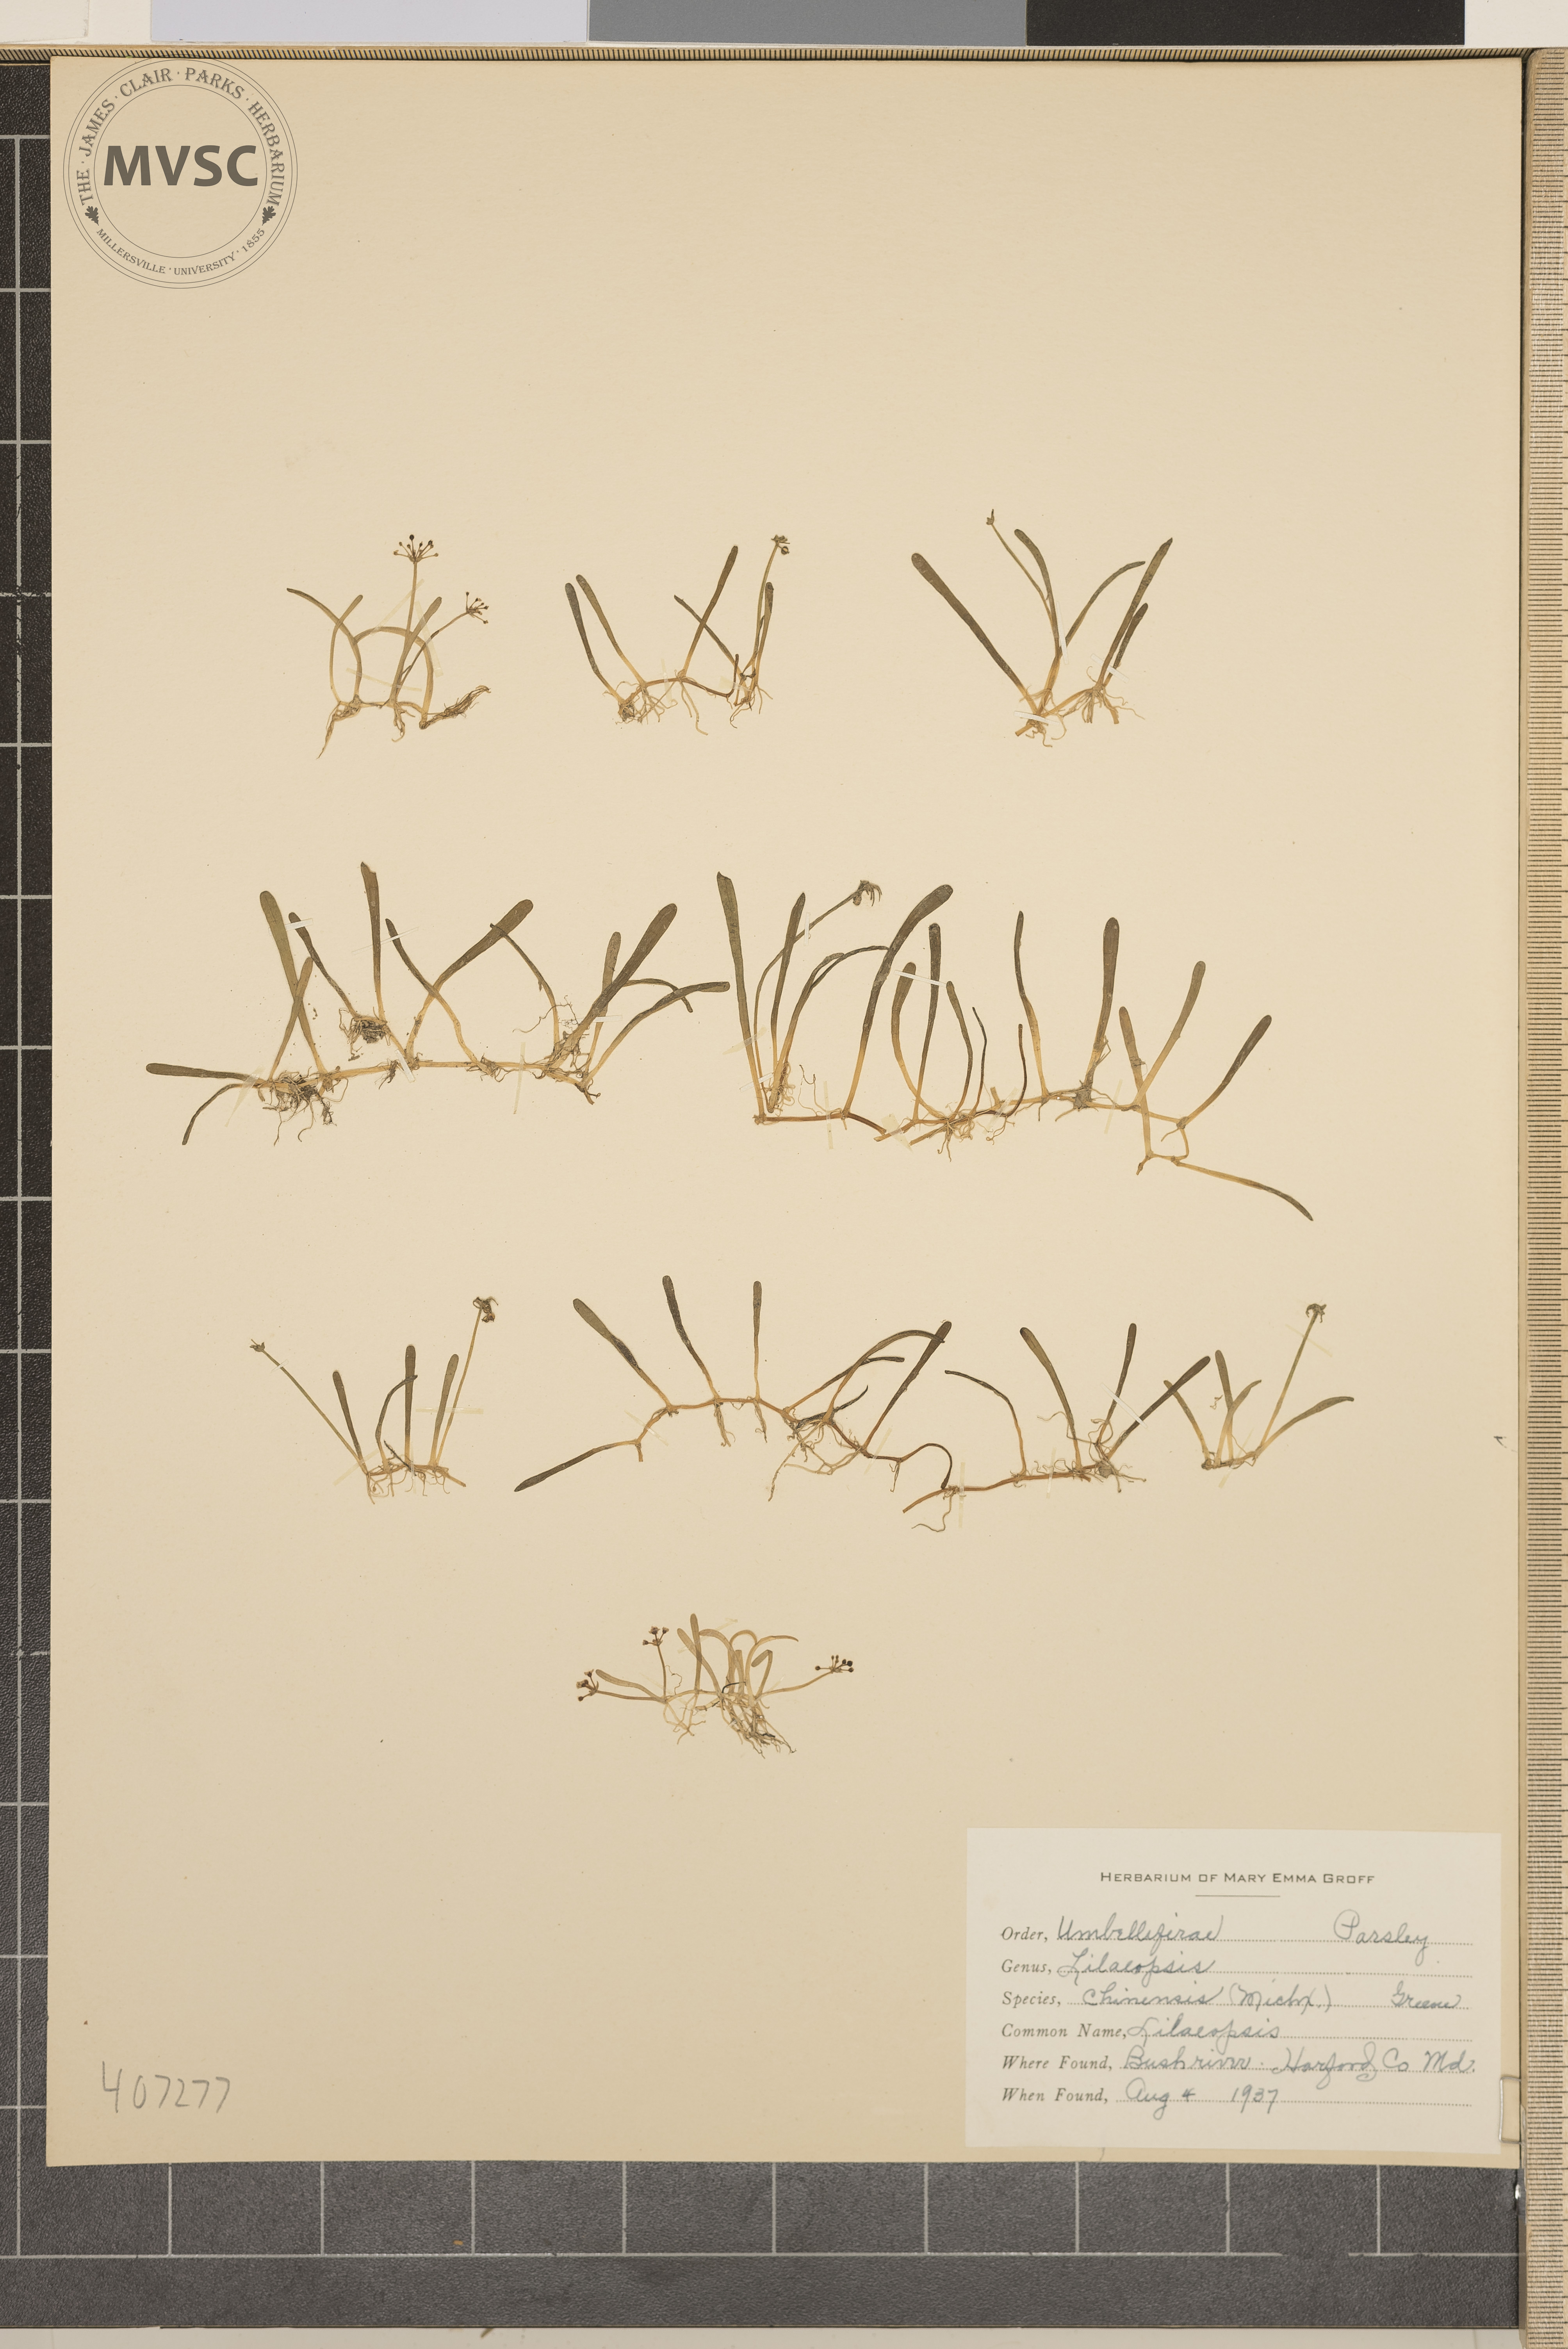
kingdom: Plantae
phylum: Tracheophyta
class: Magnoliopsida
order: Apiales
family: Apiaceae
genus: Lilaeopsis
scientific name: Lilaeopsis chinensis
